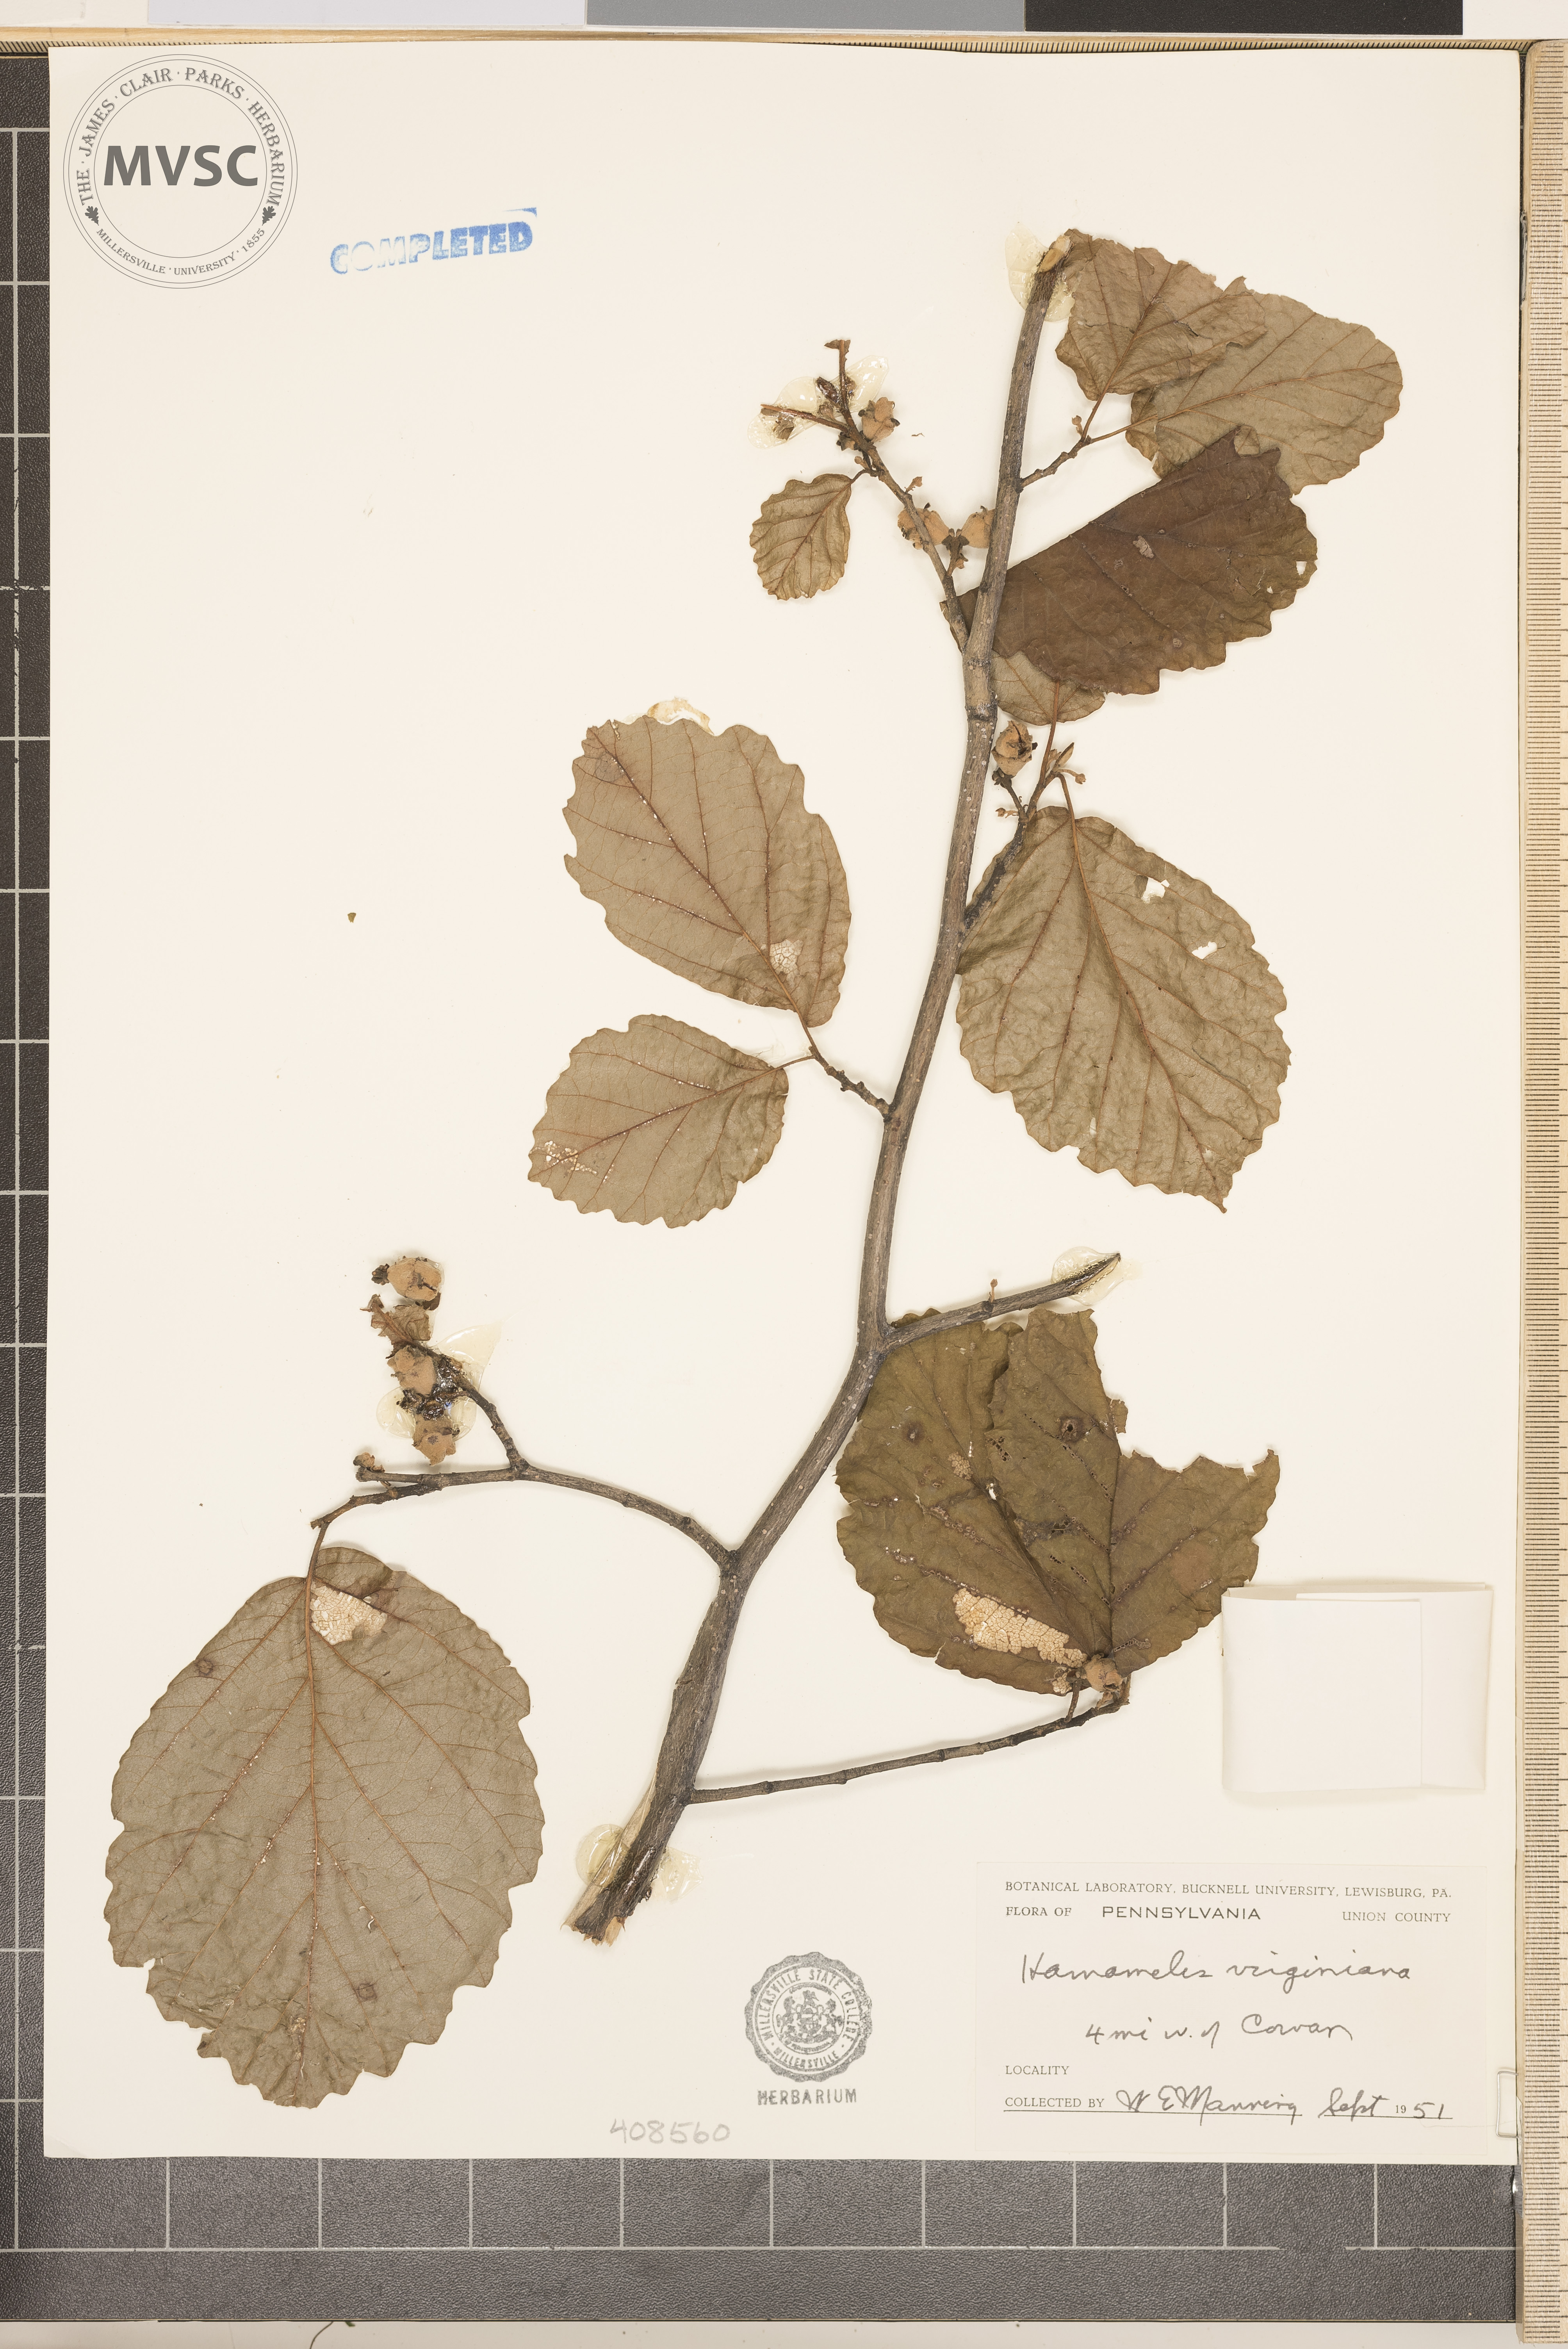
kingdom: Plantae
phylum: Tracheophyta
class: Magnoliopsida
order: Saxifragales
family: Hamamelidaceae
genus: Hamamelis
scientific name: Hamamelis virginiana
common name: Witch-hazel
